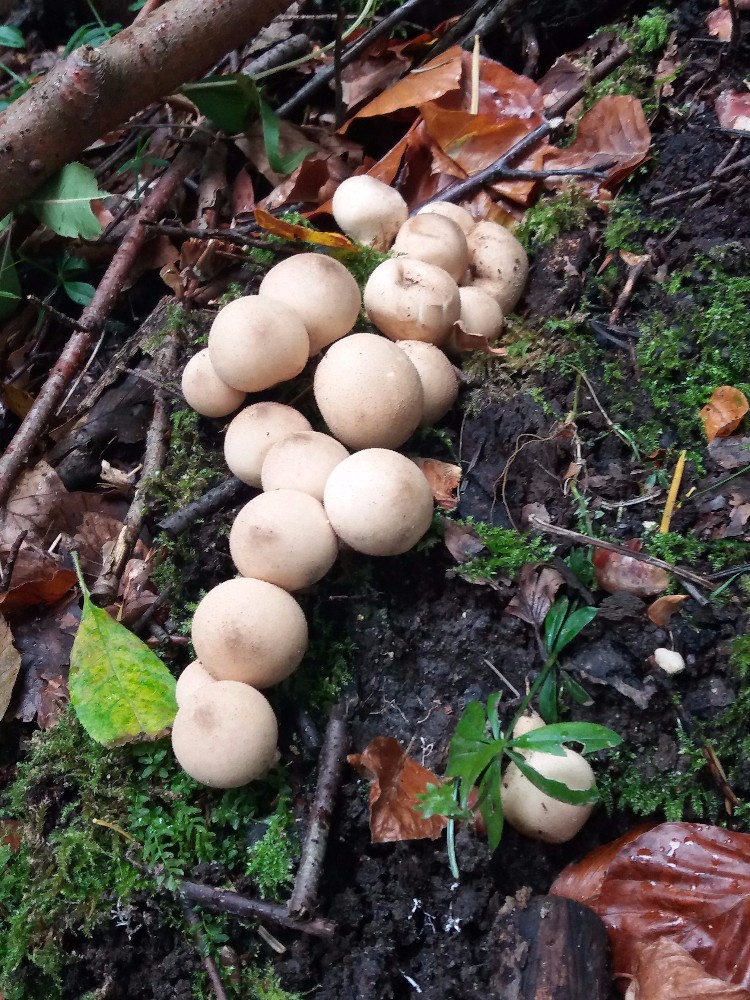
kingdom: Fungi
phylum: Basidiomycota
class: Agaricomycetes
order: Agaricales
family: Lycoperdaceae
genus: Apioperdon
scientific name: Apioperdon pyriforme
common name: pære-støvbold
